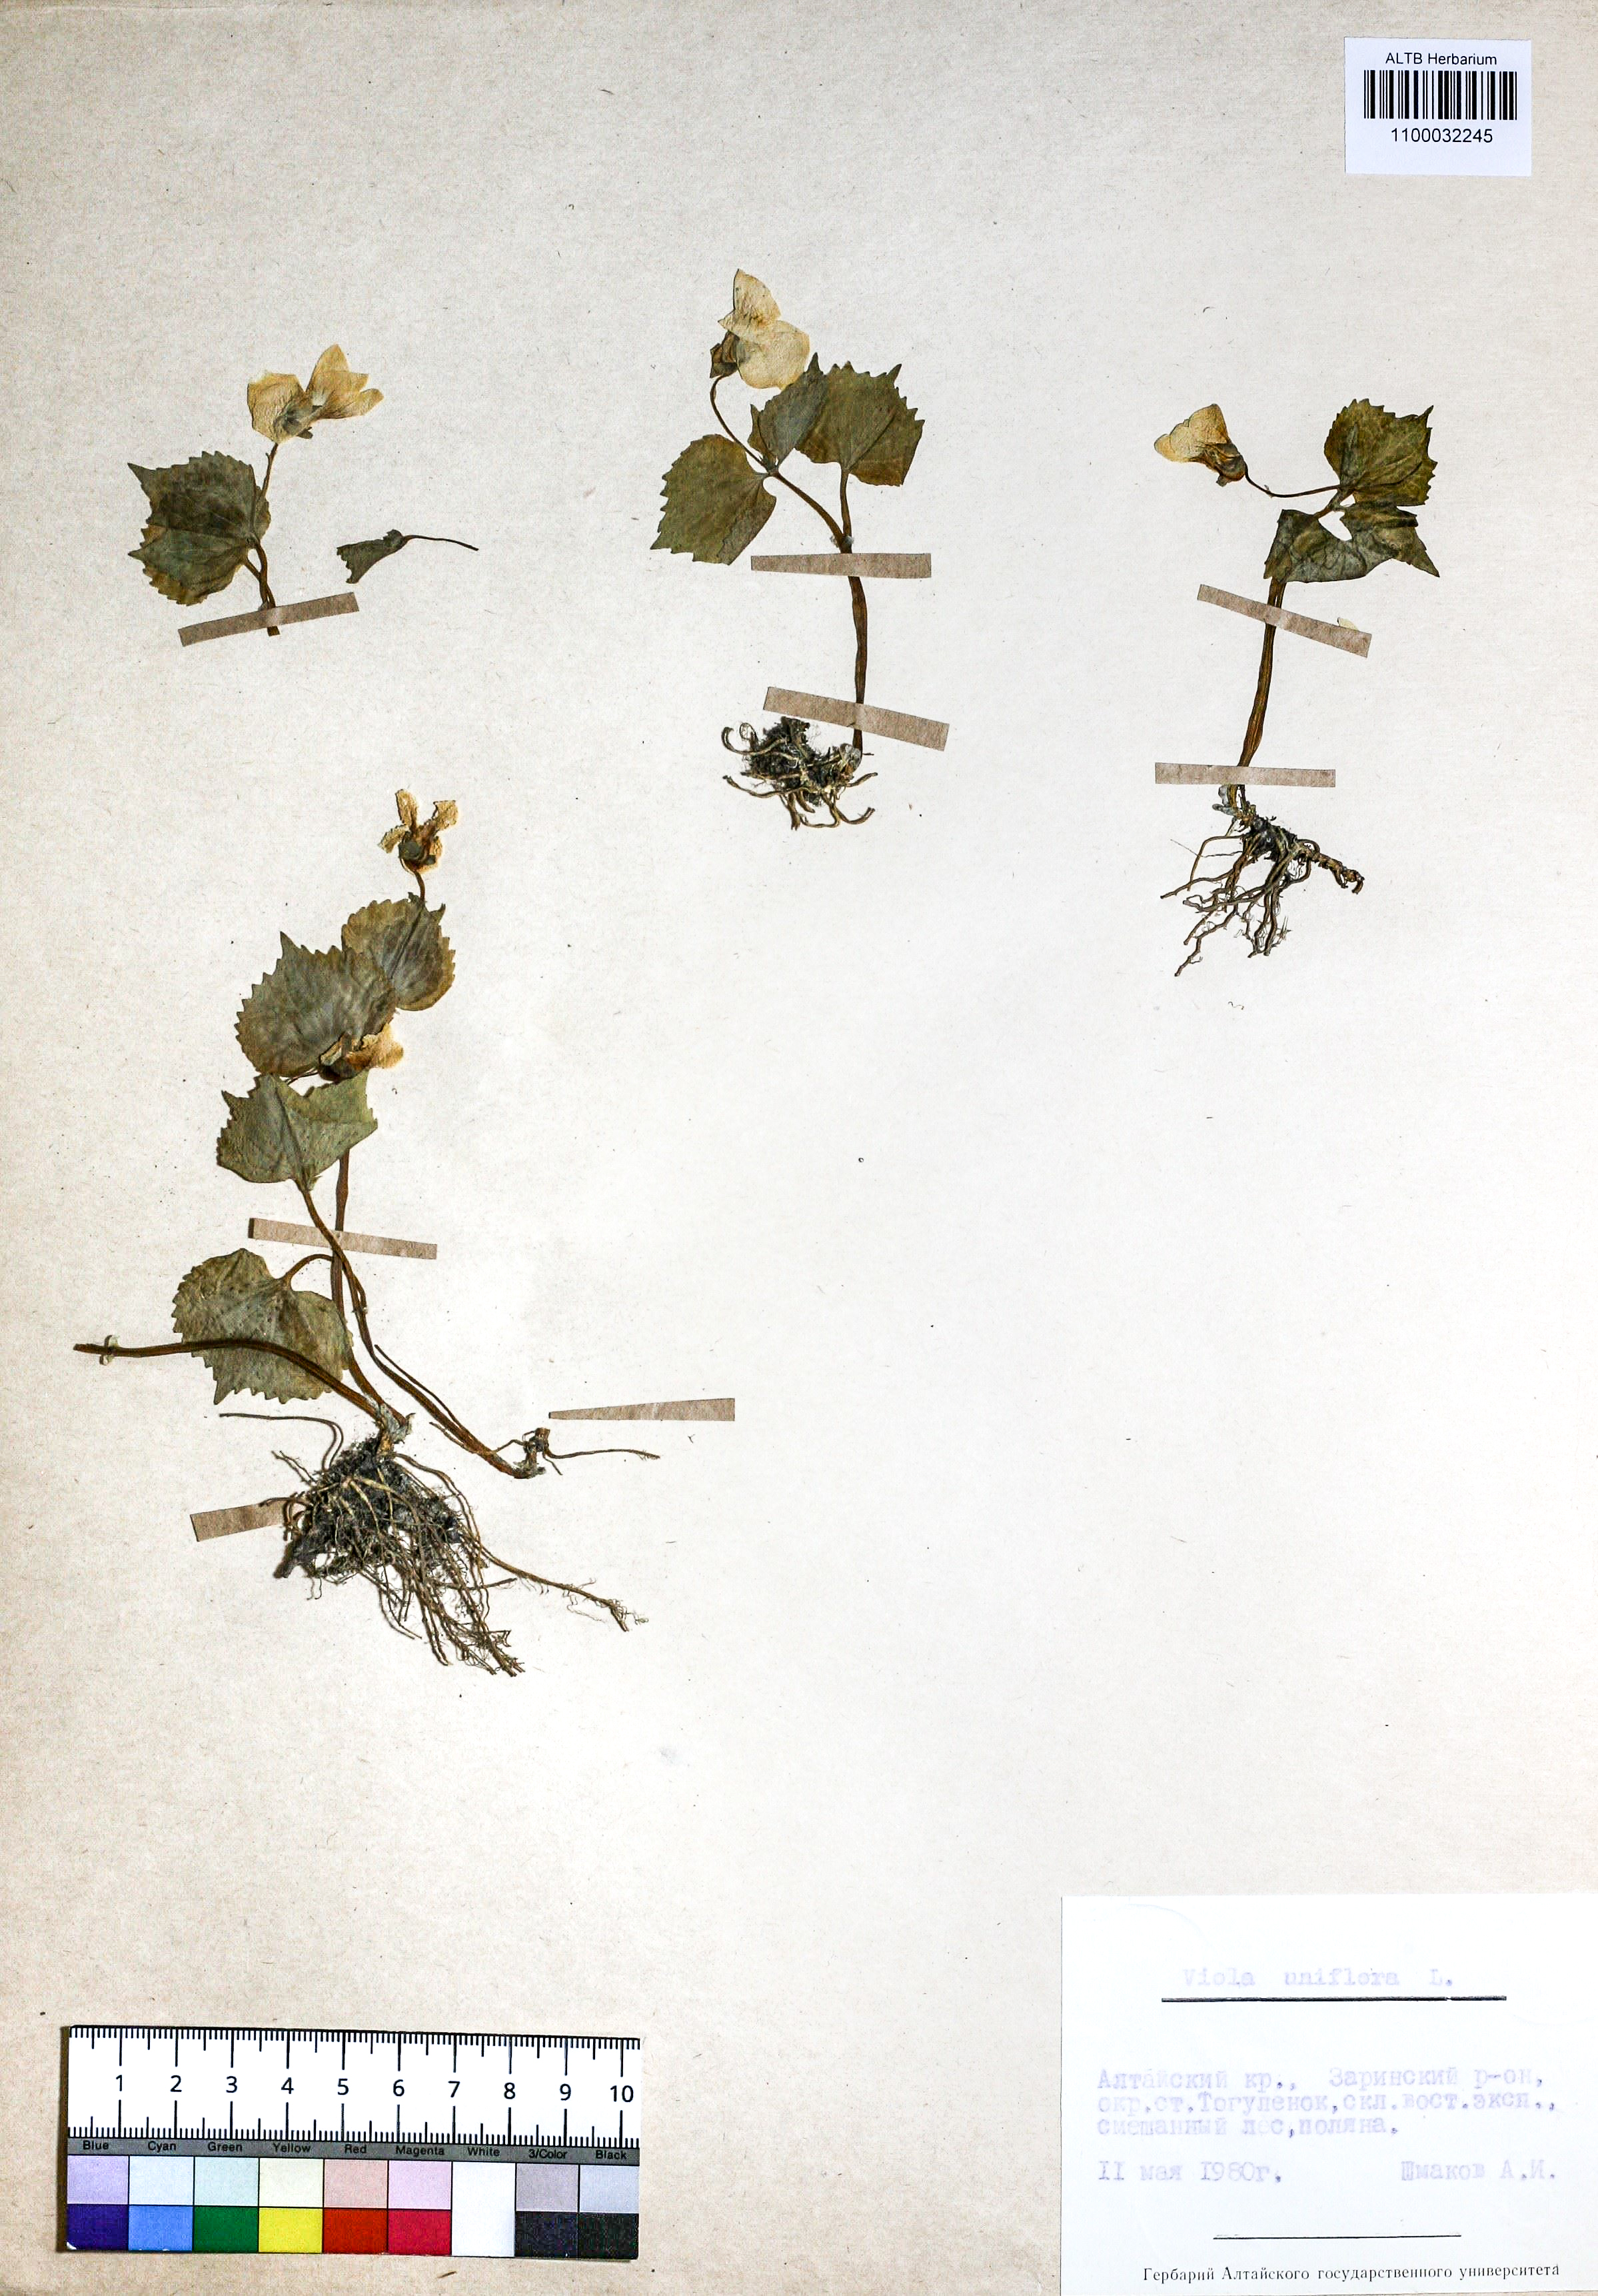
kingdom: Plantae
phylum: Tracheophyta
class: Magnoliopsida
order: Malpighiales
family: Violaceae
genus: Viola
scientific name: Viola uniflora
